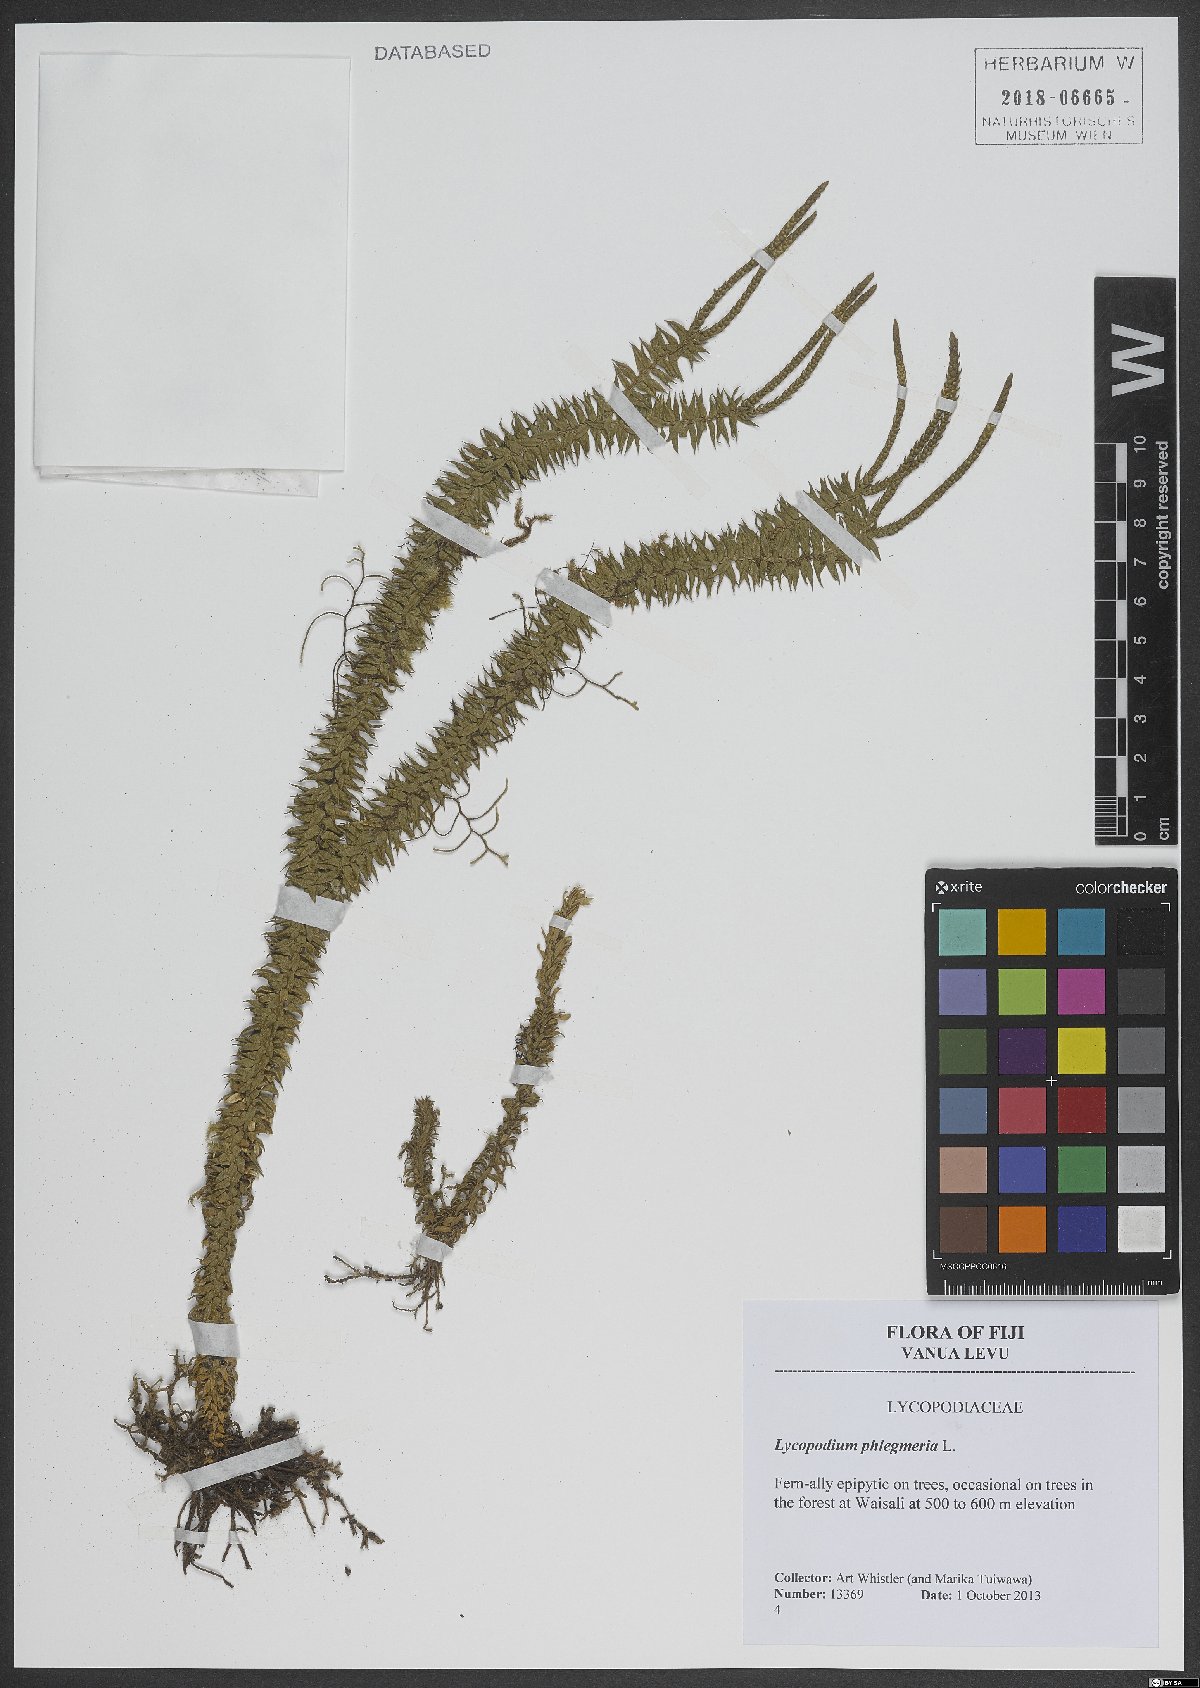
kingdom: Plantae
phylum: Tracheophyta
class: Lycopodiopsida
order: Lycopodiales
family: Lycopodiaceae
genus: Phlegmariurus
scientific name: Phlegmariurus phlegmaria
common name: Coarse tassel-fern
